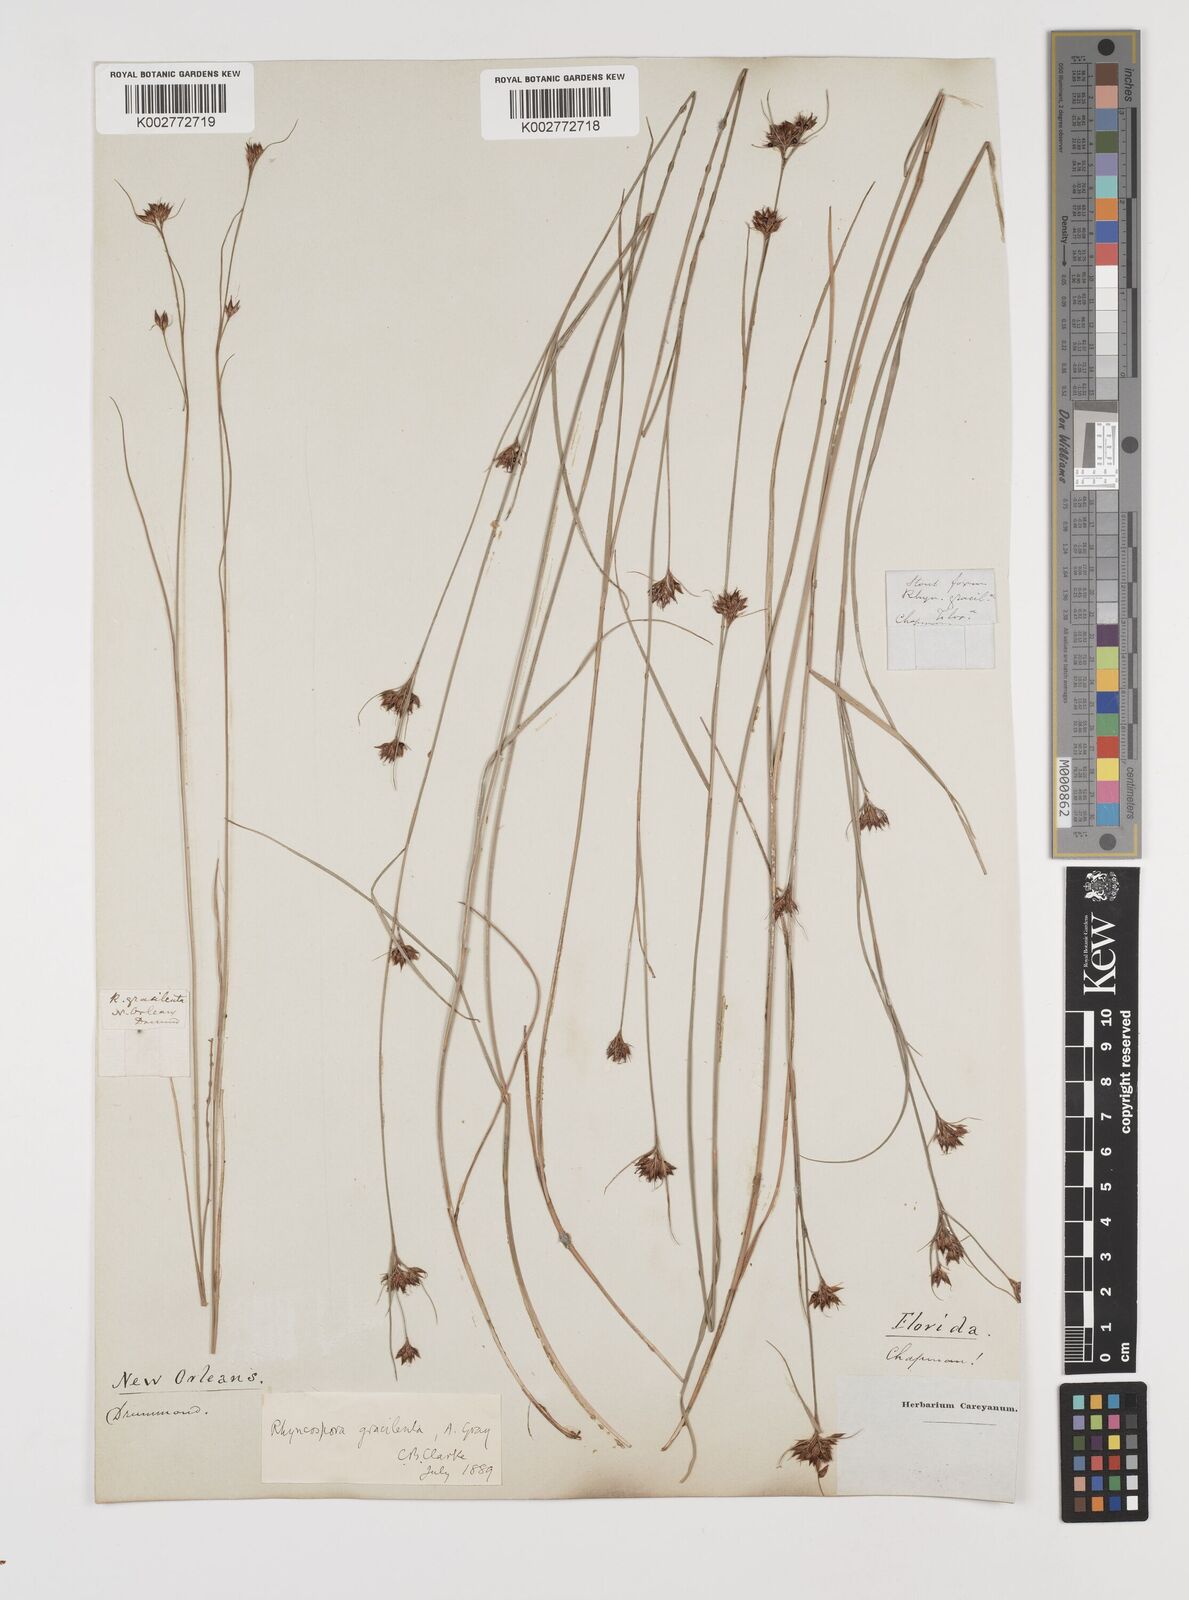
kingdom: Plantae
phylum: Tracheophyta
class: Liliopsida
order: Poales
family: Cyperaceae
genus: Rhynchospora
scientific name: Rhynchospora gracilenta
